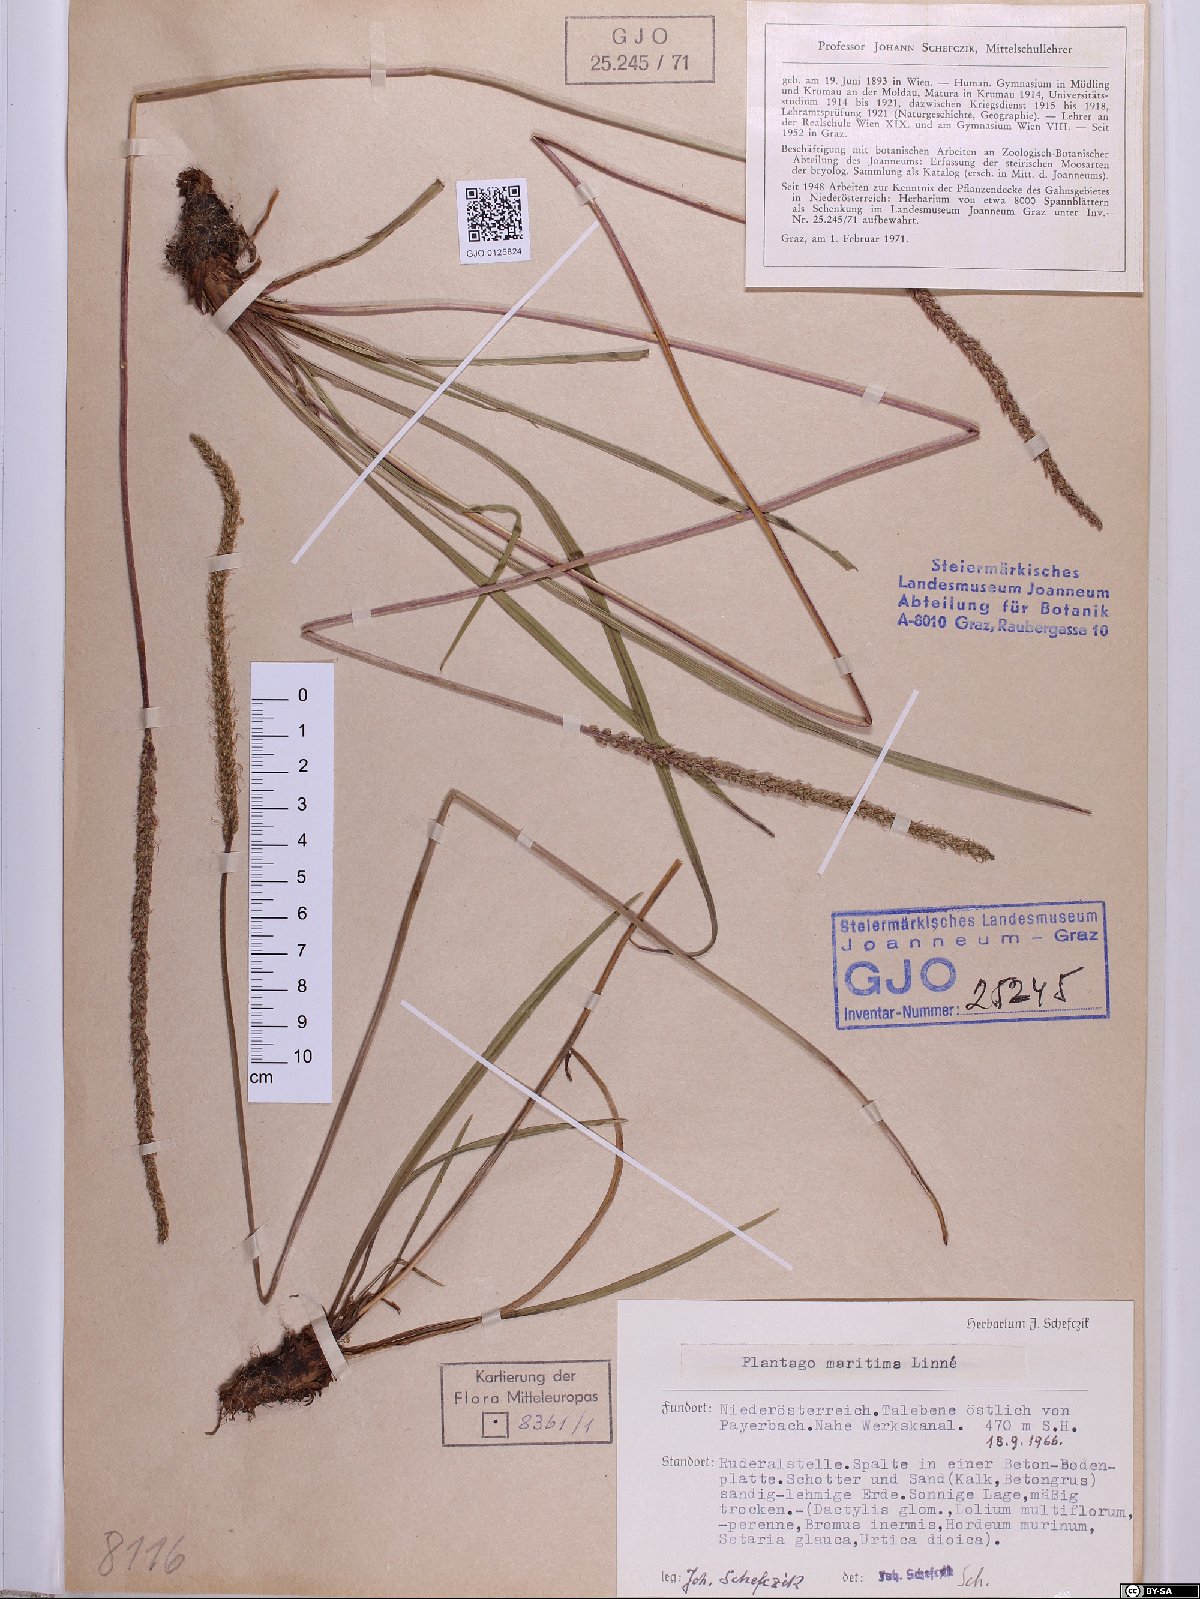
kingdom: Plantae
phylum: Tracheophyta
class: Magnoliopsida
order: Lamiales
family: Plantaginaceae
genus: Plantago
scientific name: Plantago maritima
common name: Sea plantain
